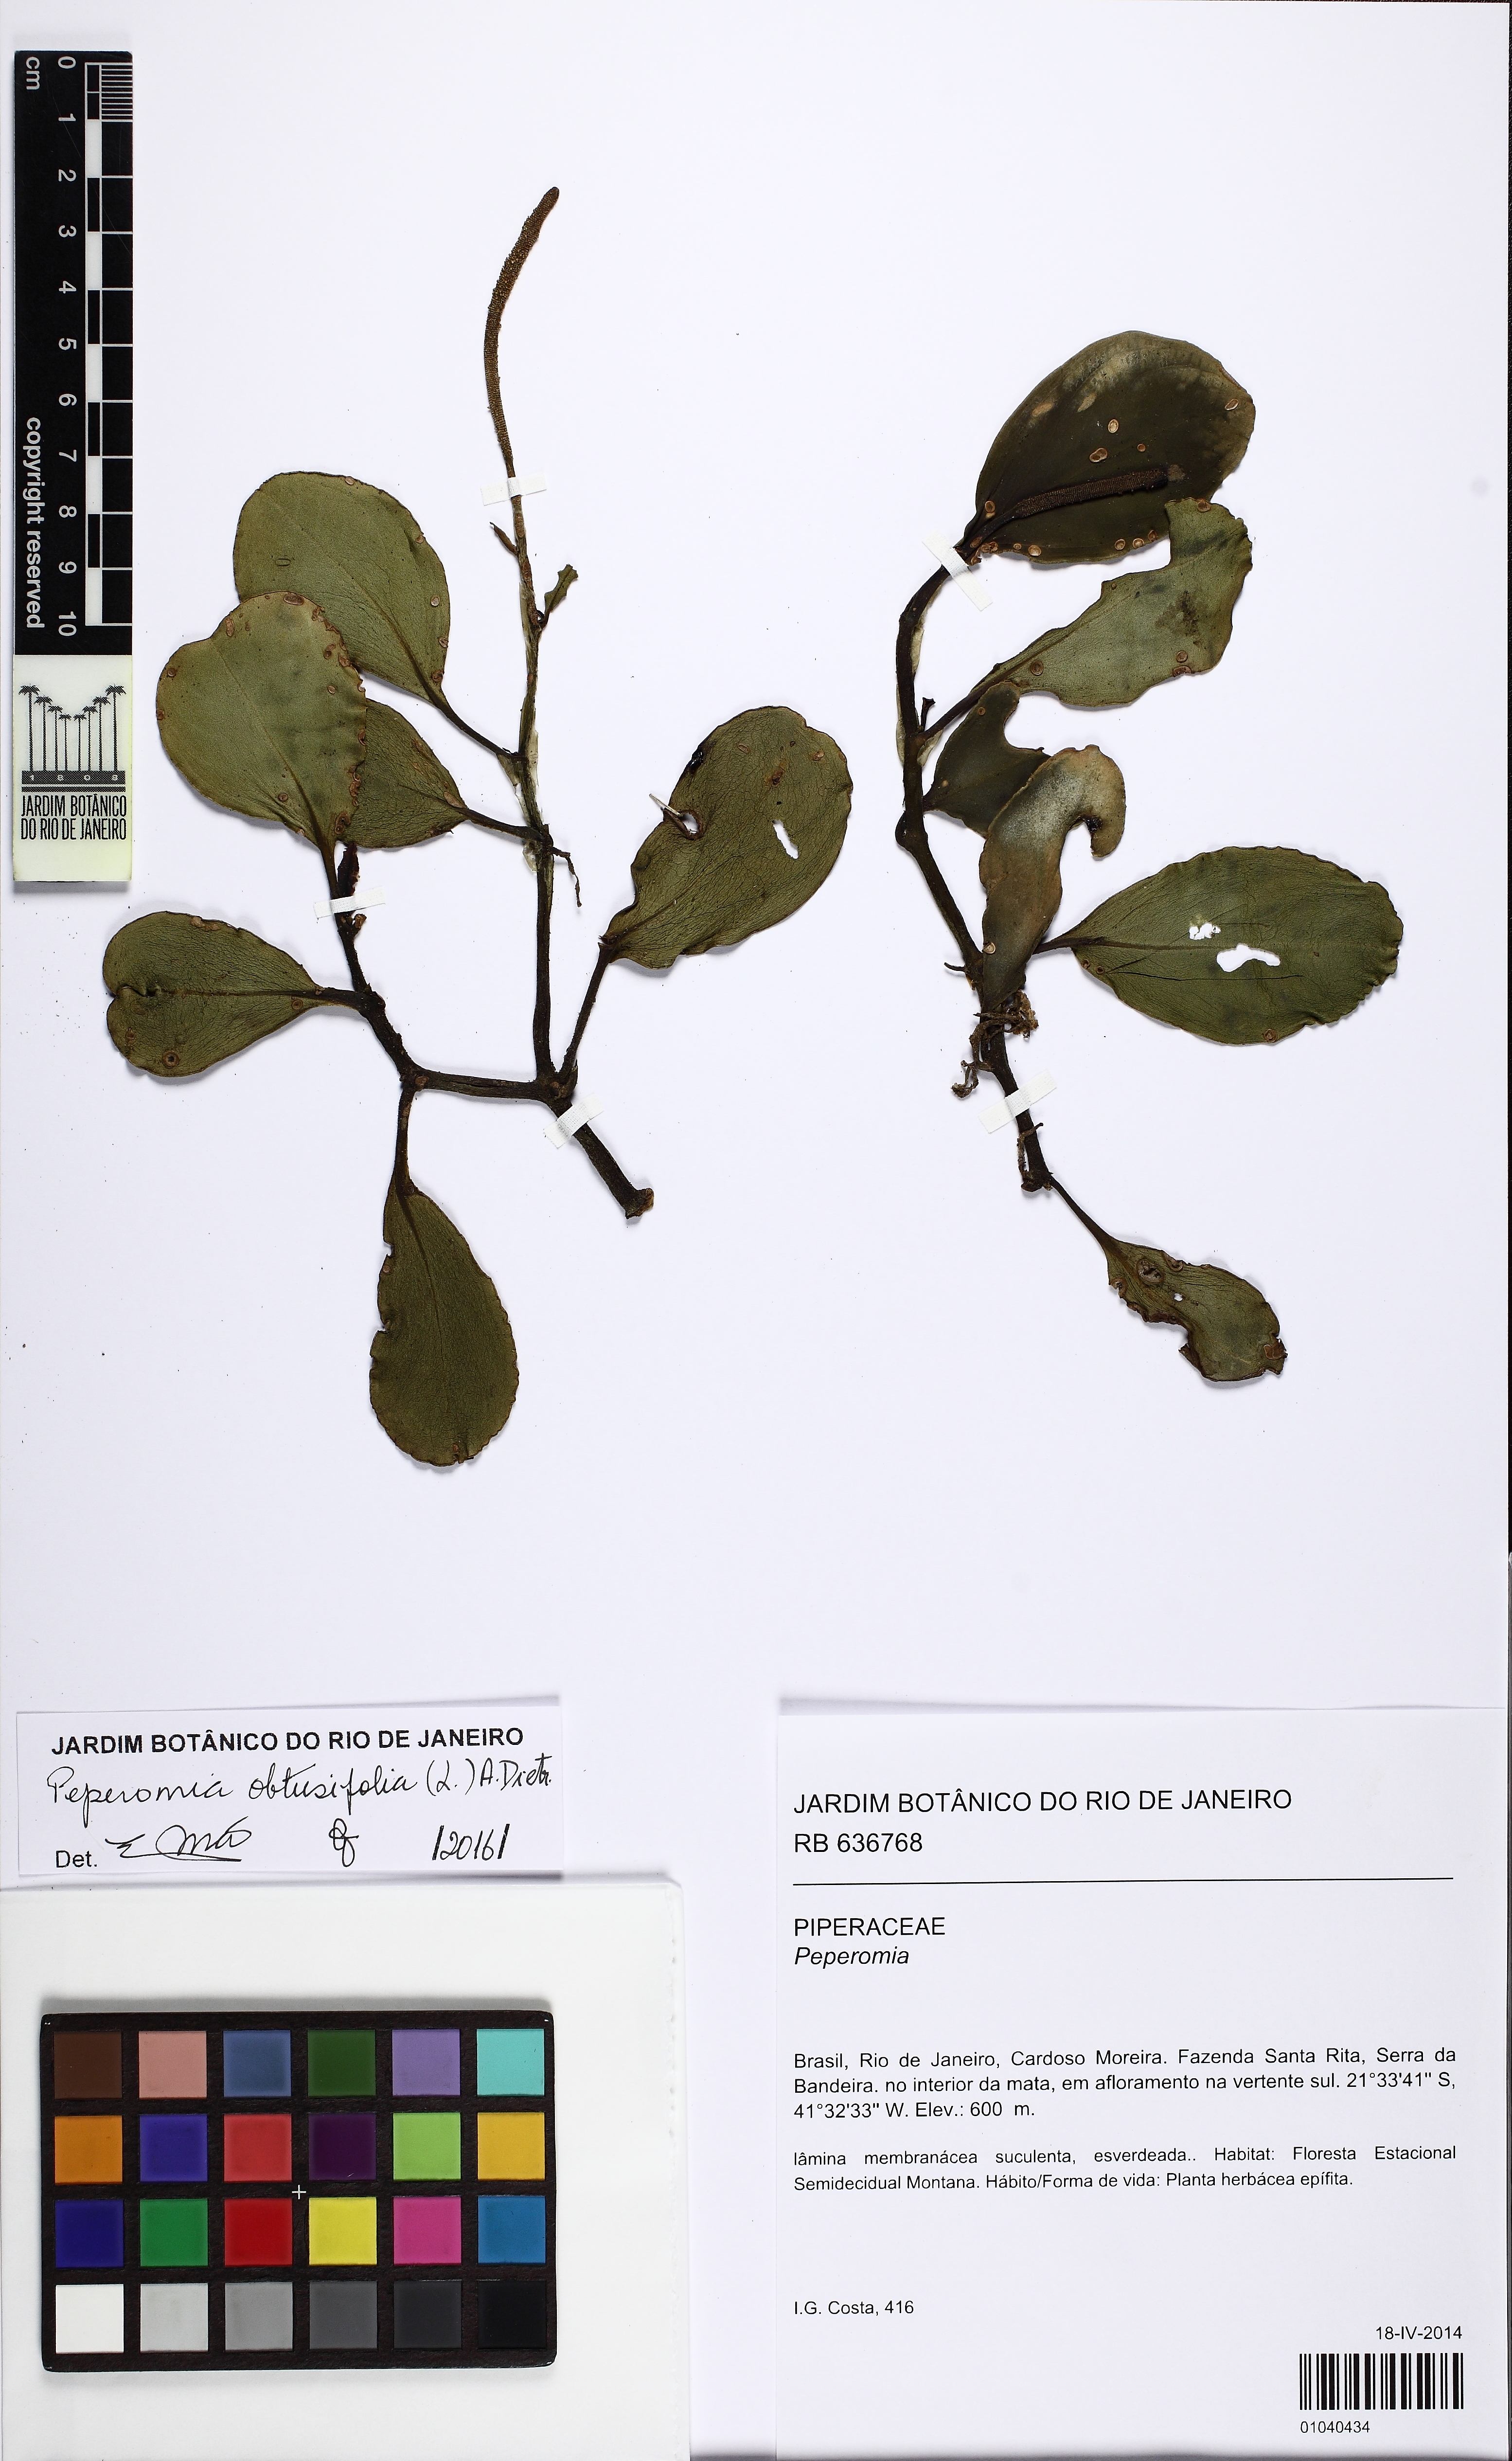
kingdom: Plantae
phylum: Tracheophyta
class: Magnoliopsida
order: Piperales
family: Piperaceae
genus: Peperomia
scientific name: Peperomia obtusifolia
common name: Baby rubberplant
